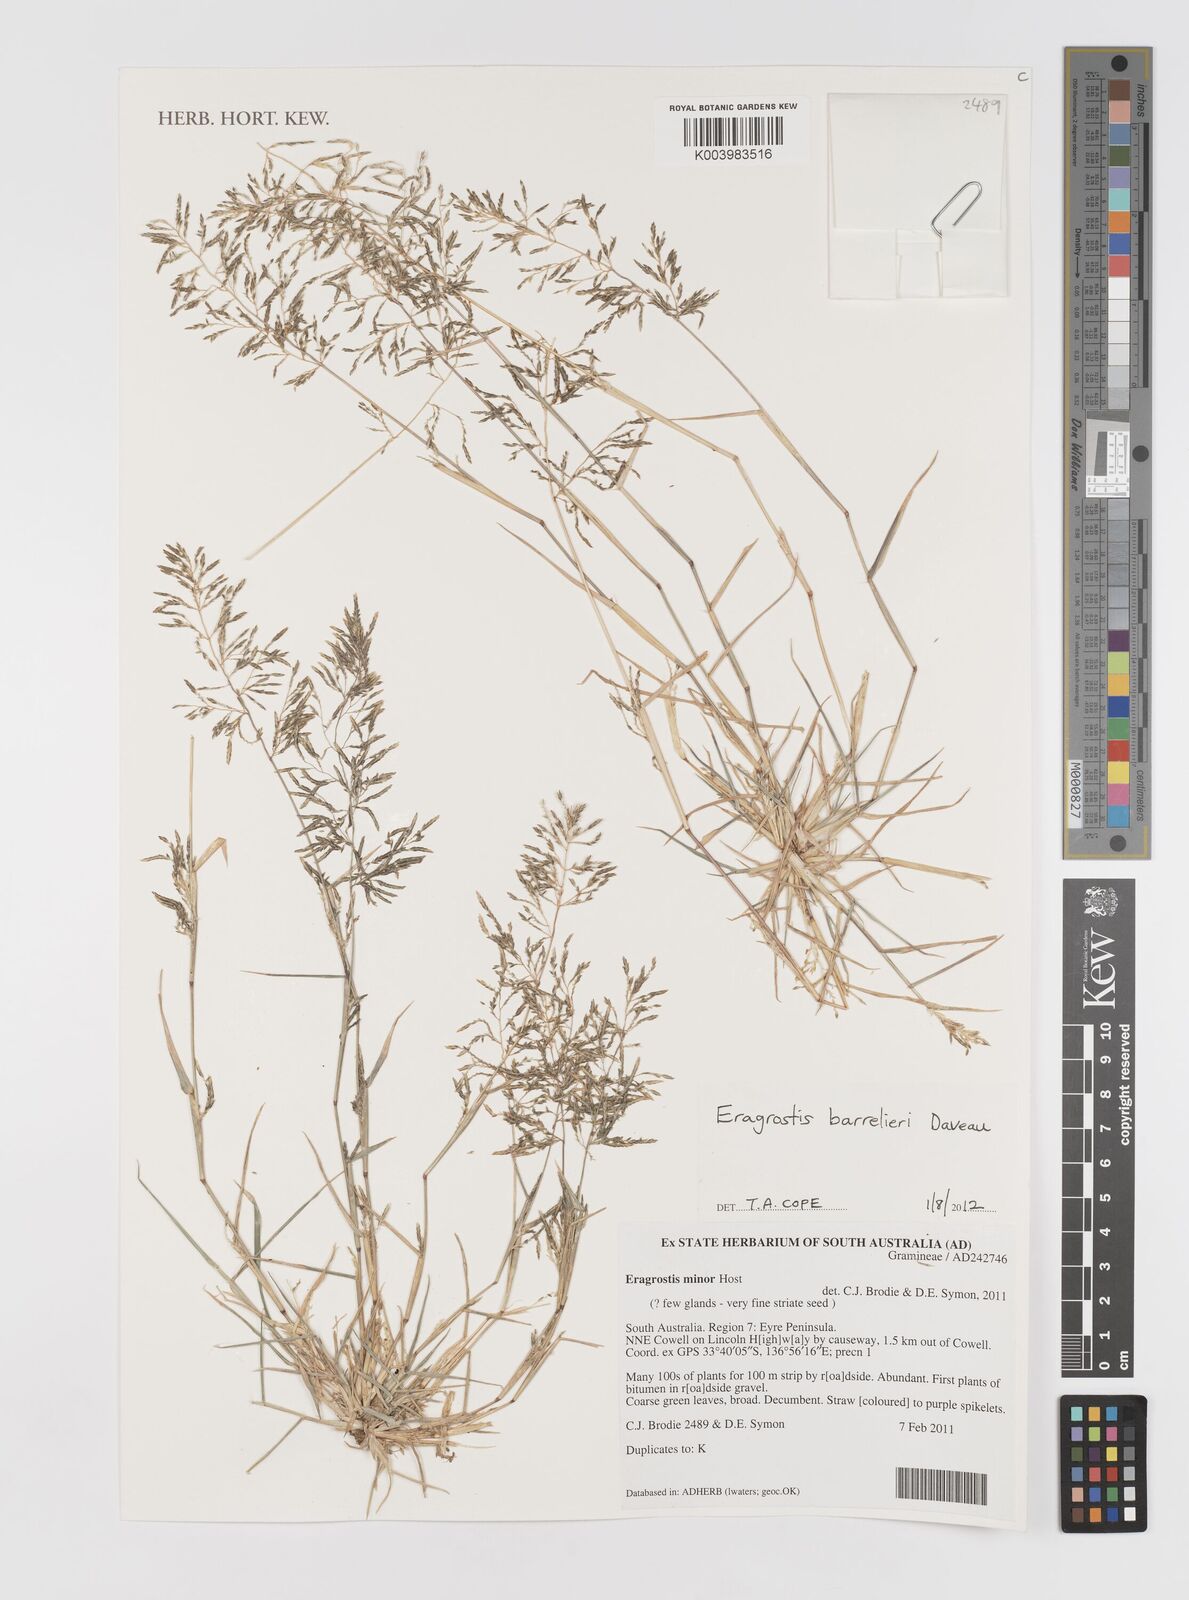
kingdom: Plantae
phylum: Tracheophyta
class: Liliopsida
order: Poales
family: Poaceae
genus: Eragrostis
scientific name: Eragrostis barrelieri
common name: Mediterranean lovegrass
